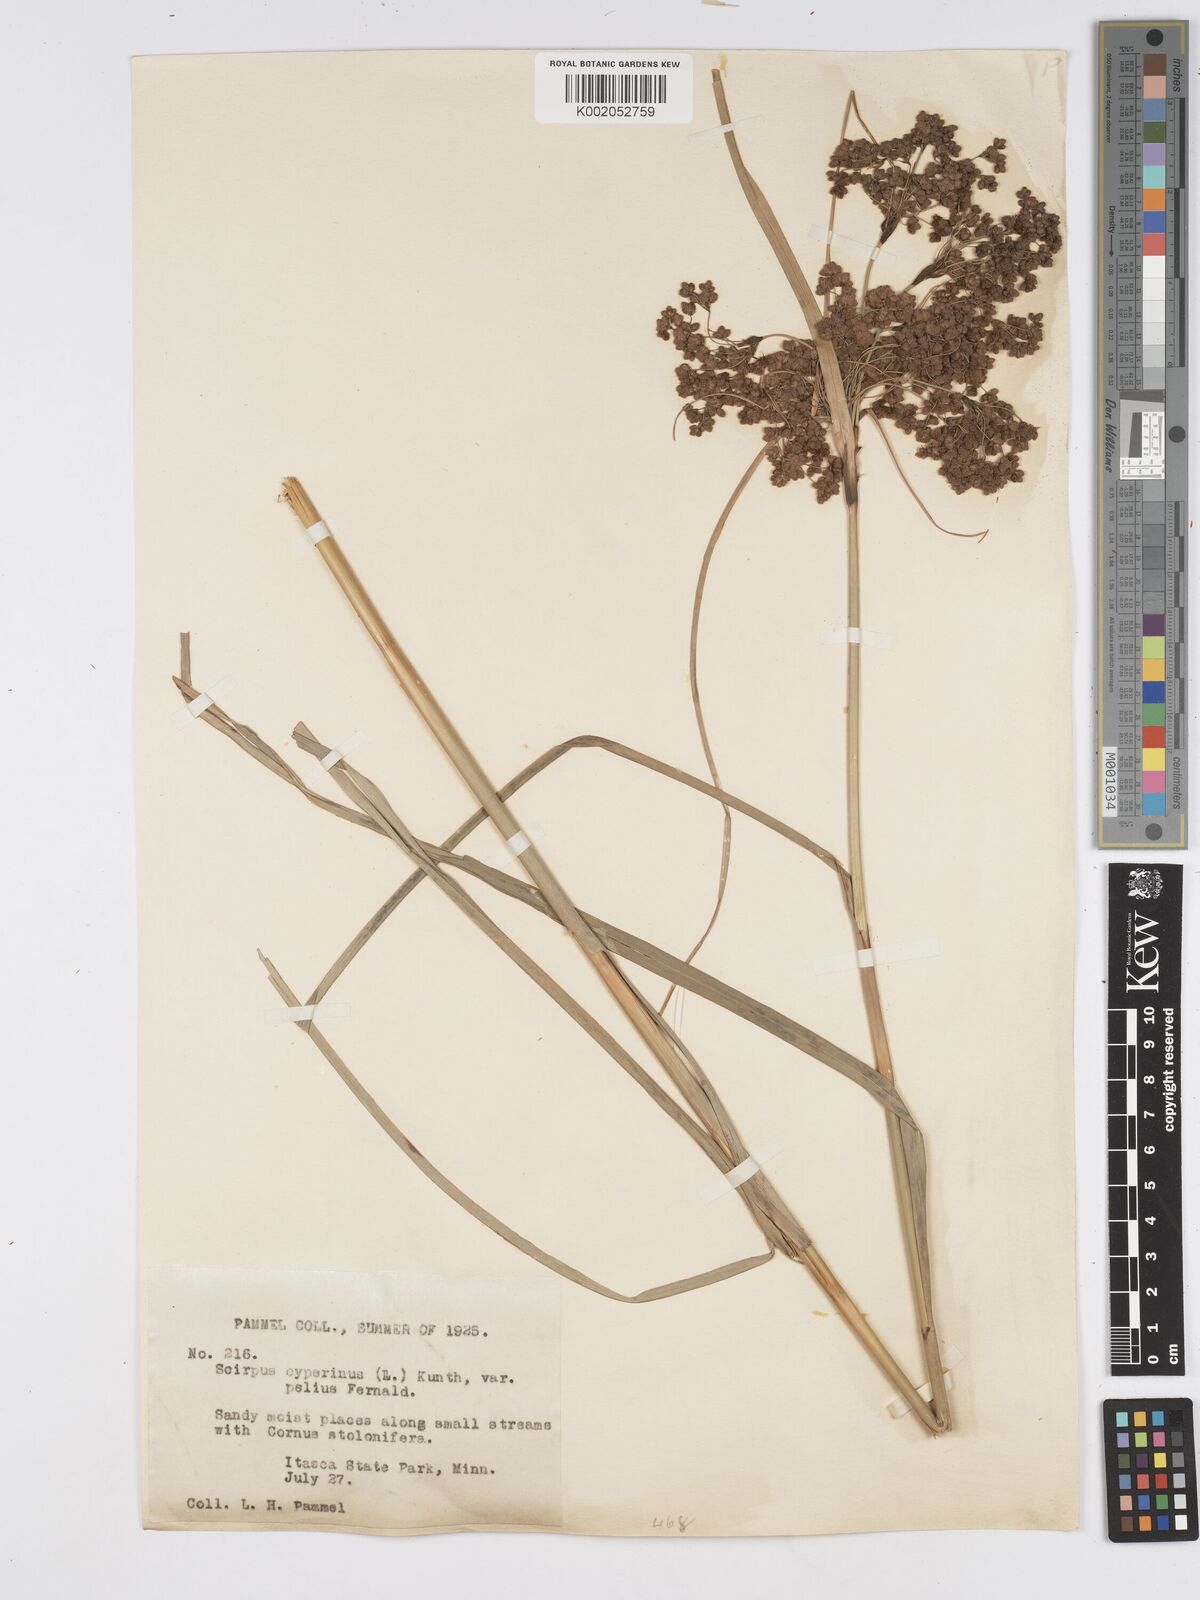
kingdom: Plantae
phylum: Tracheophyta
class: Liliopsida
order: Poales
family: Cyperaceae
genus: Scirpus
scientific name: Scirpus cyperinus
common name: Black-sheathed bulrush
